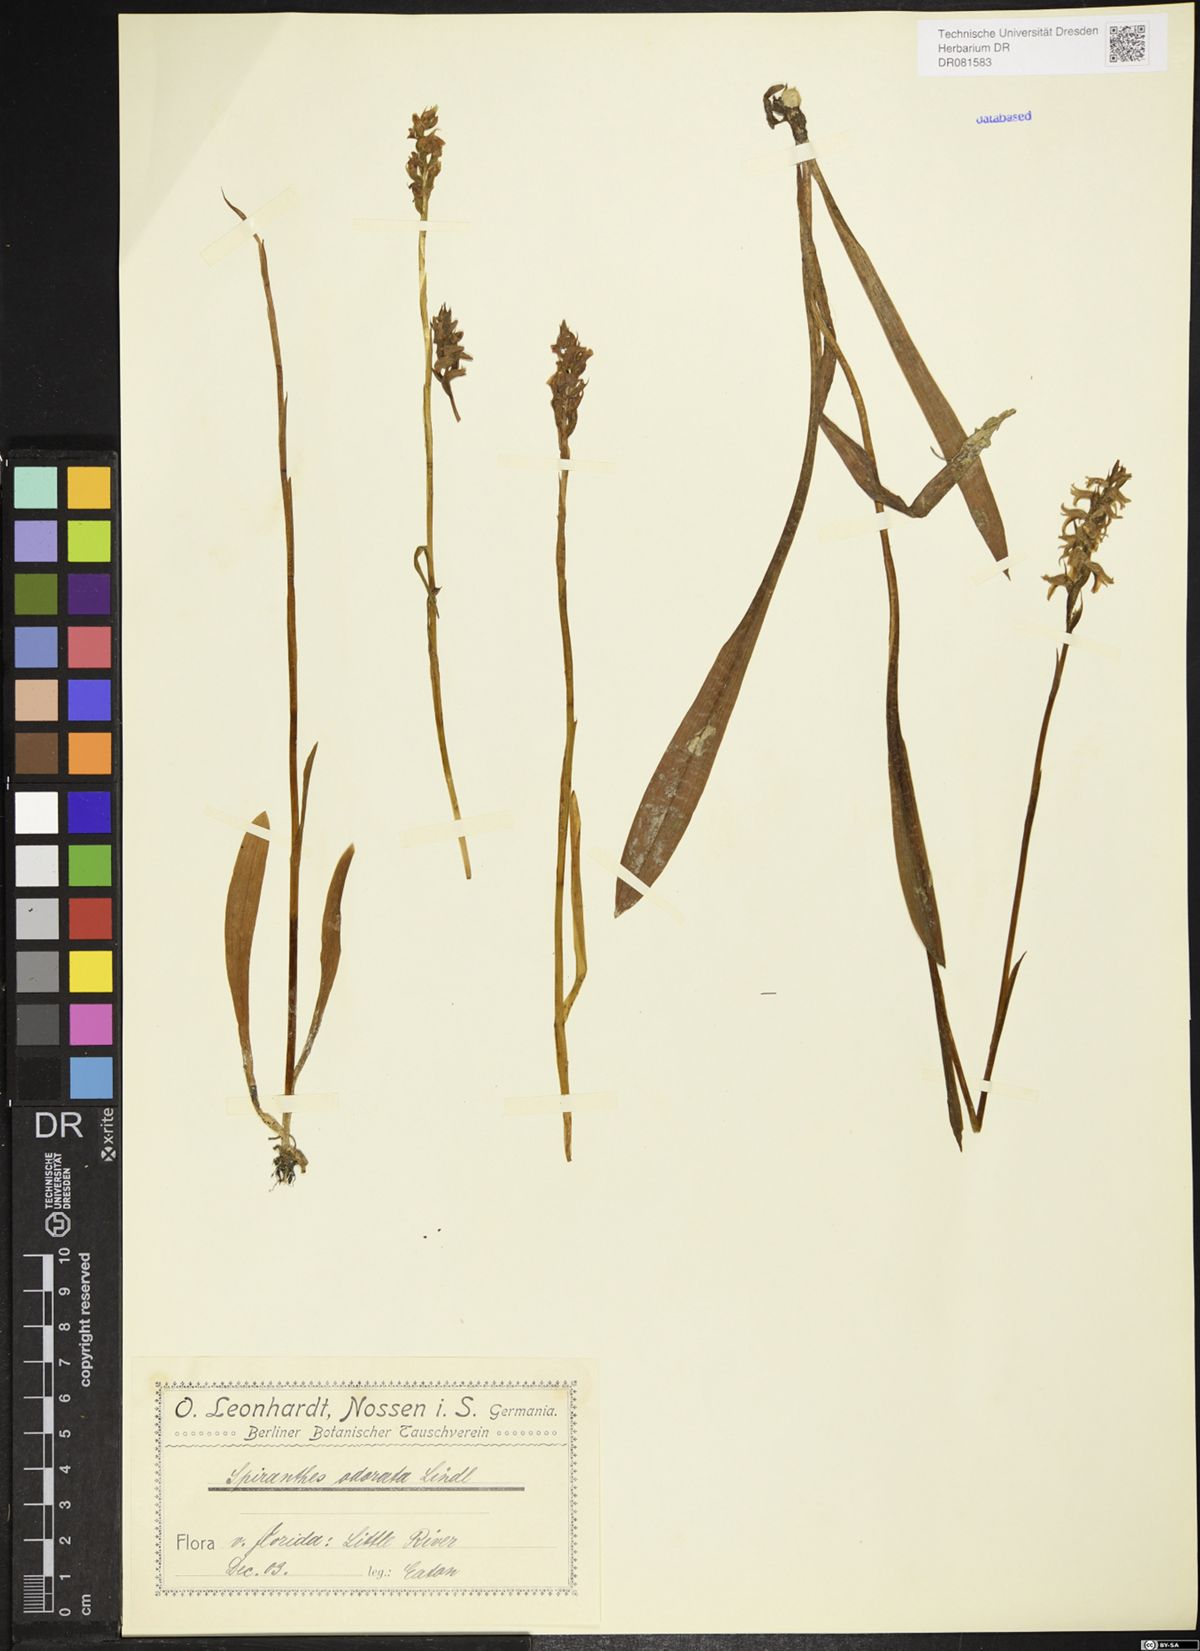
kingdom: Plantae
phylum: Tracheophyta
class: Liliopsida
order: Asparagales
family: Orchidaceae
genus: Spiranthes
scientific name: Spiranthes odorata
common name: Marsh ladies'-tresses
